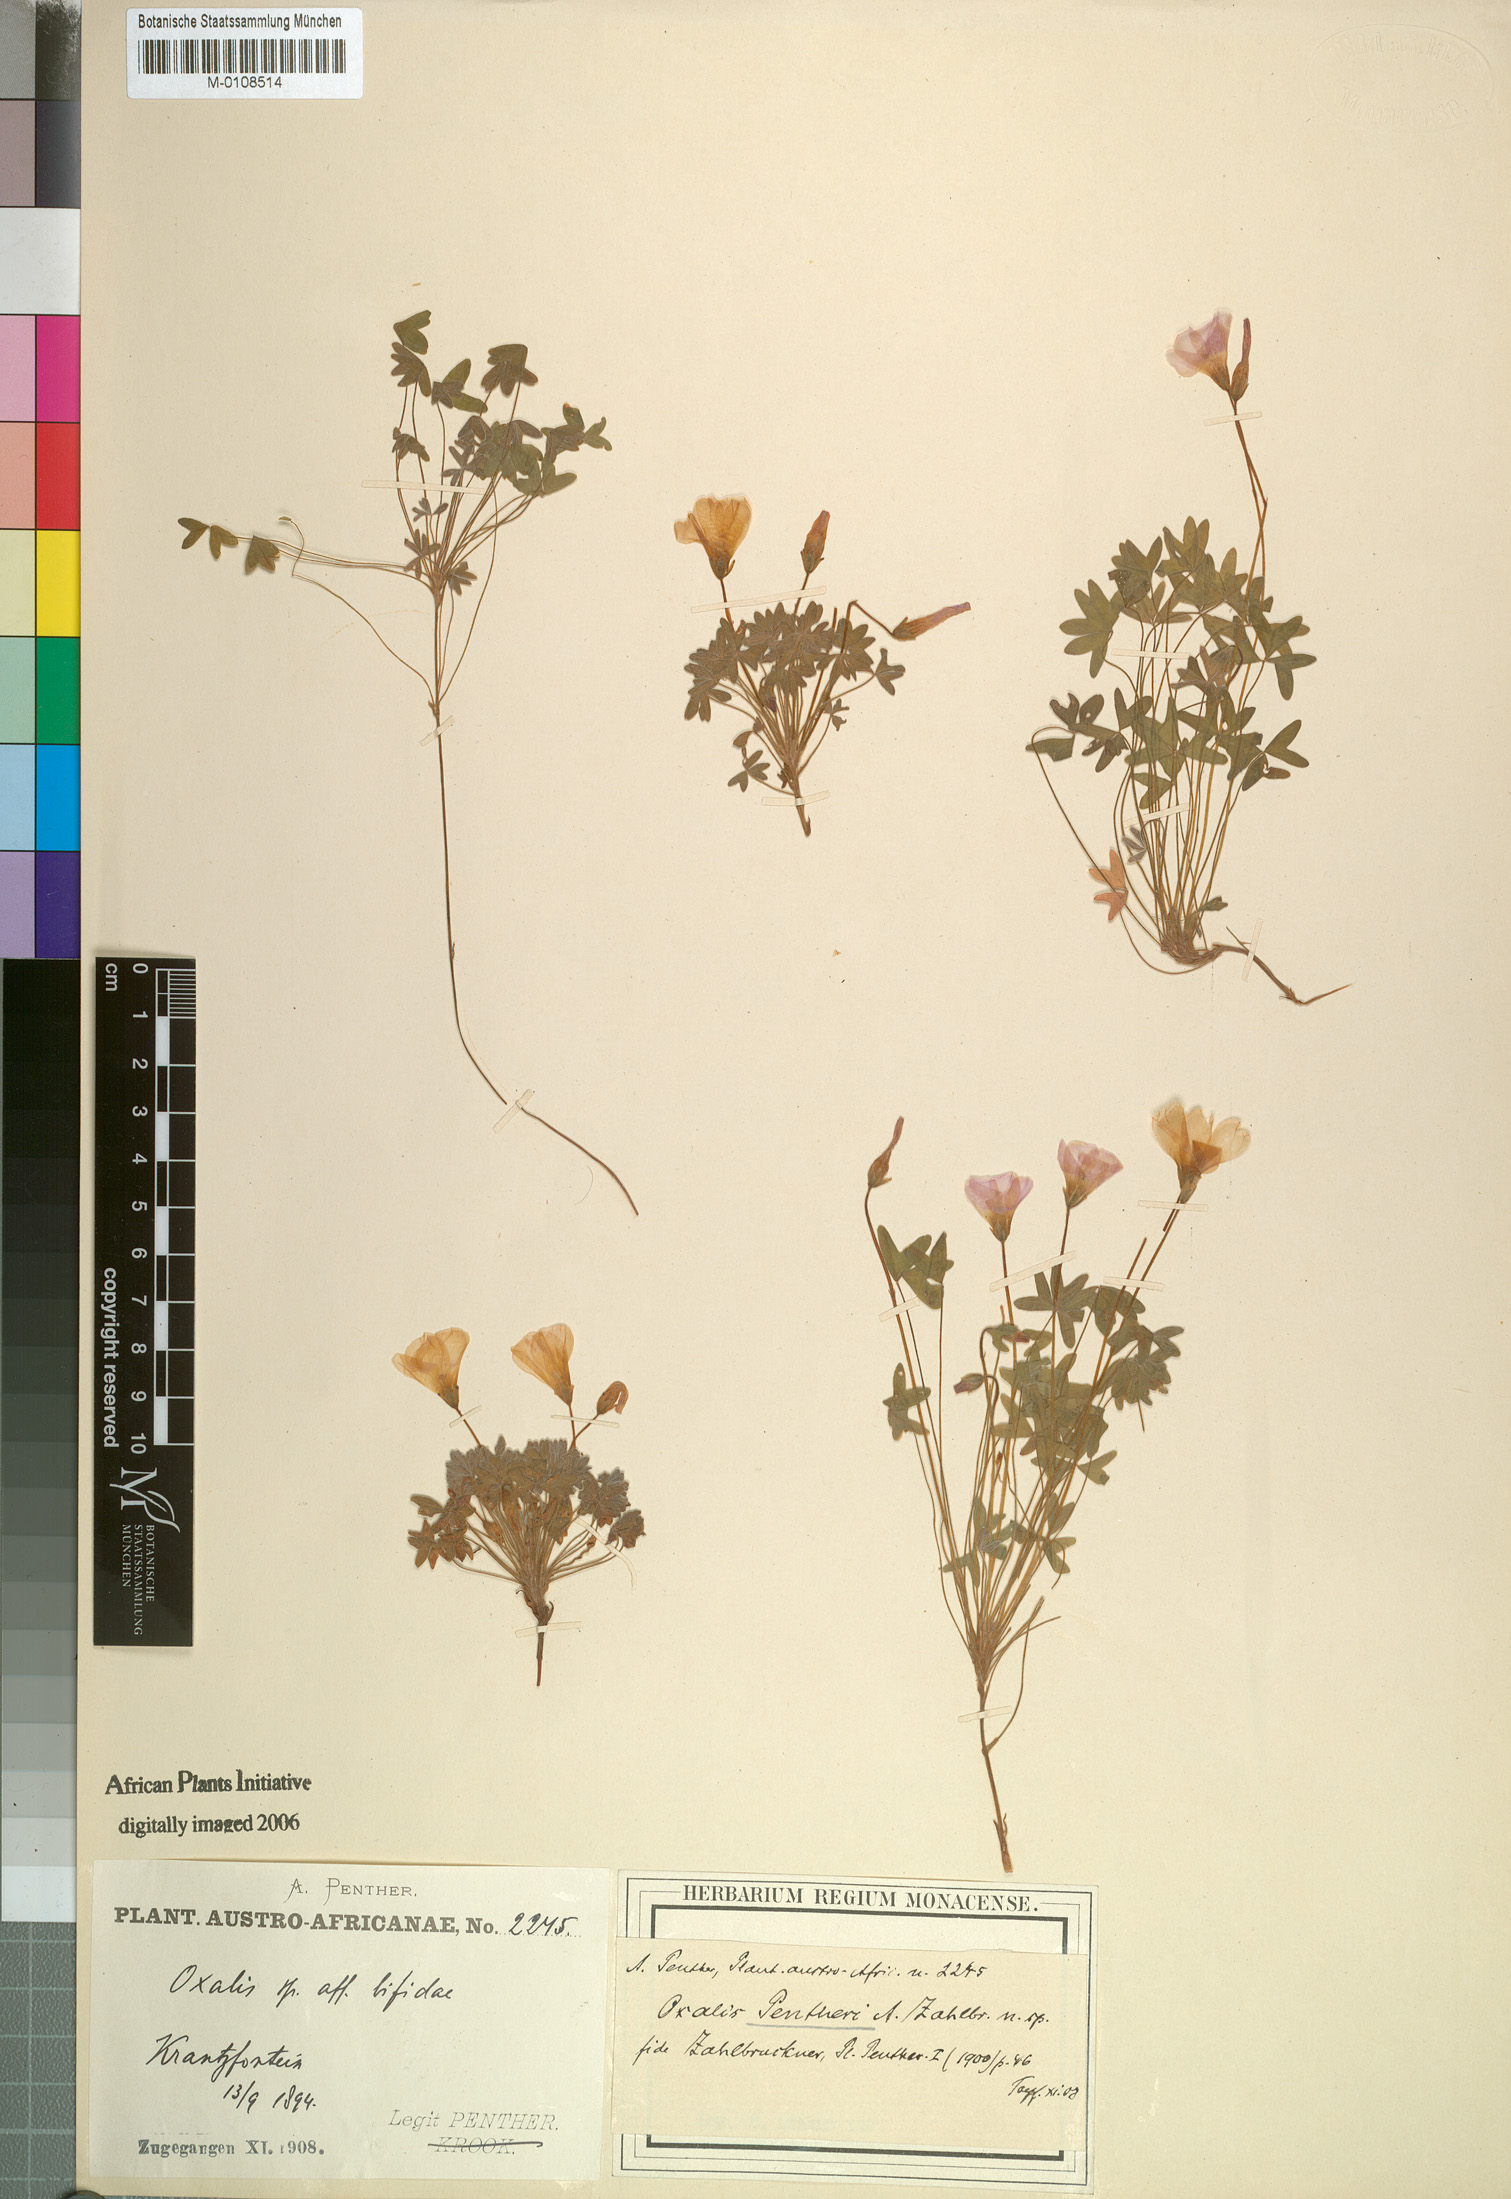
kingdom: Plantae
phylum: Tracheophyta
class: Magnoliopsida
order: Oxalidales
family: Oxalidaceae
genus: Oxalis
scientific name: Oxalis heterophylla
